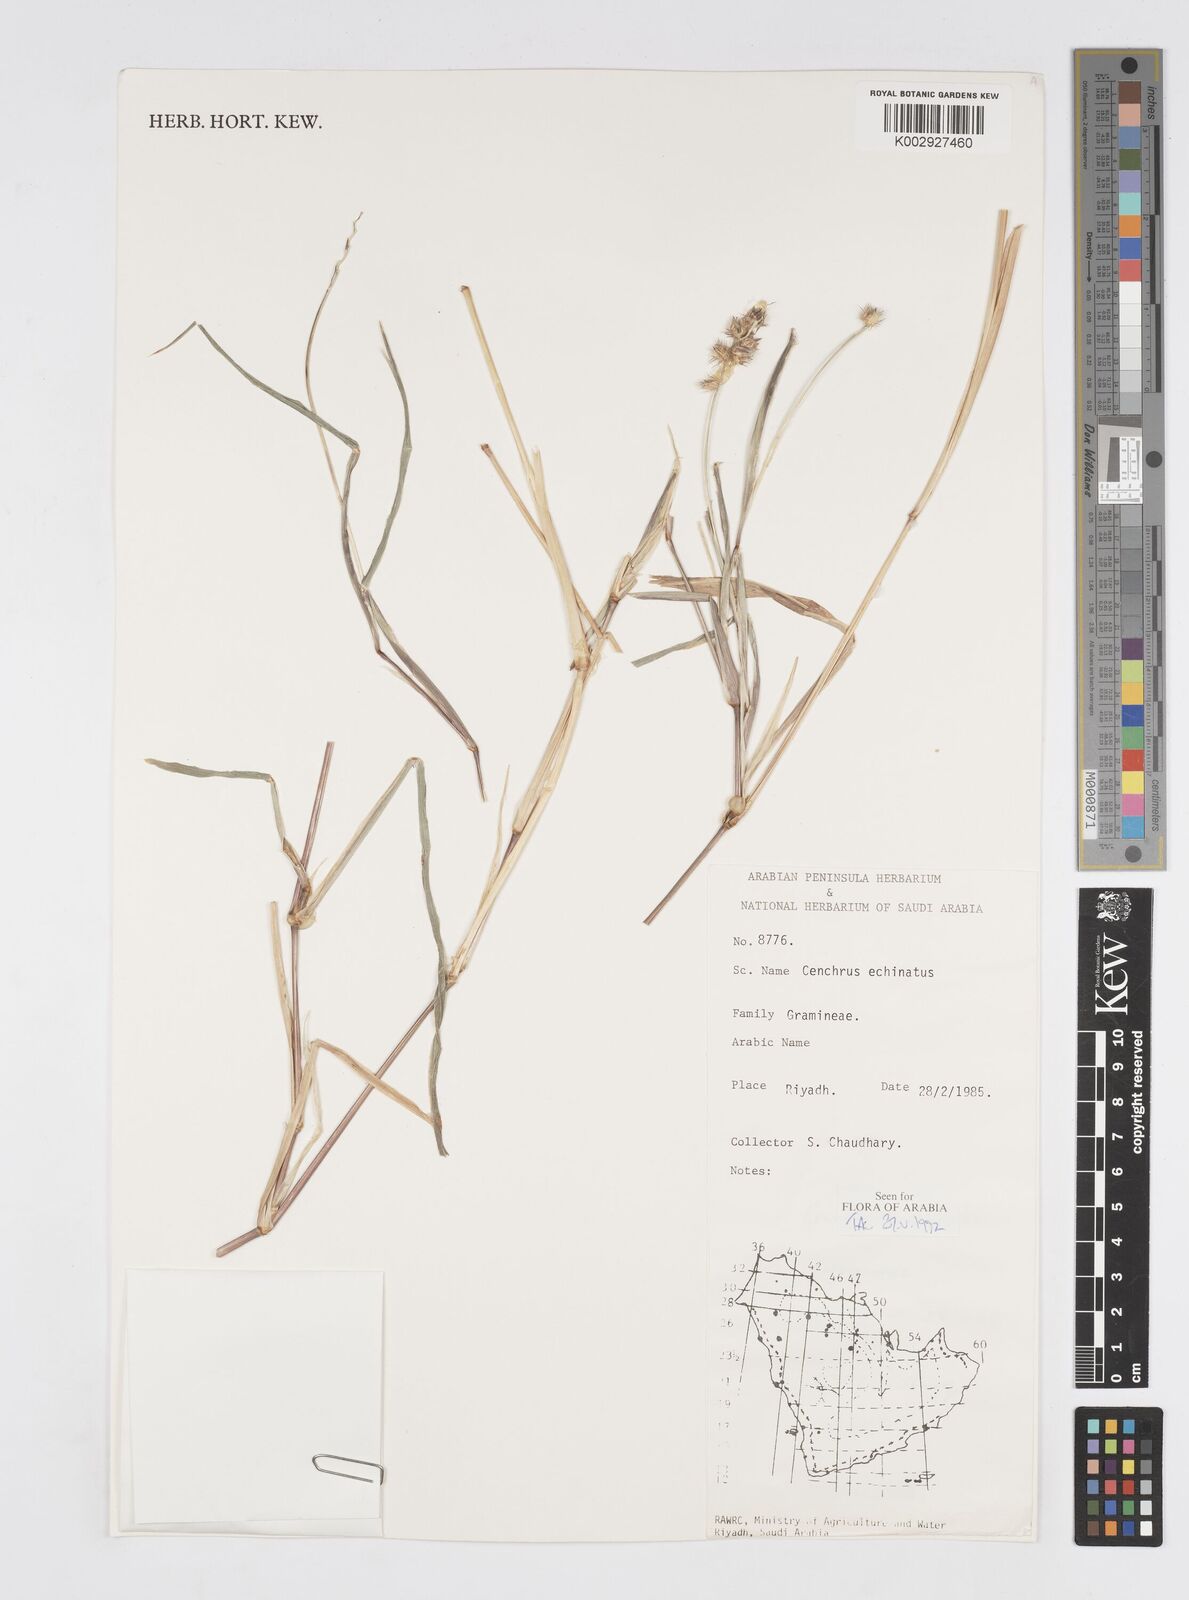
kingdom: Plantae
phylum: Tracheophyta
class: Liliopsida
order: Poales
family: Poaceae
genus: Cenchrus
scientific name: Cenchrus echinatus
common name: Southern sandbur
